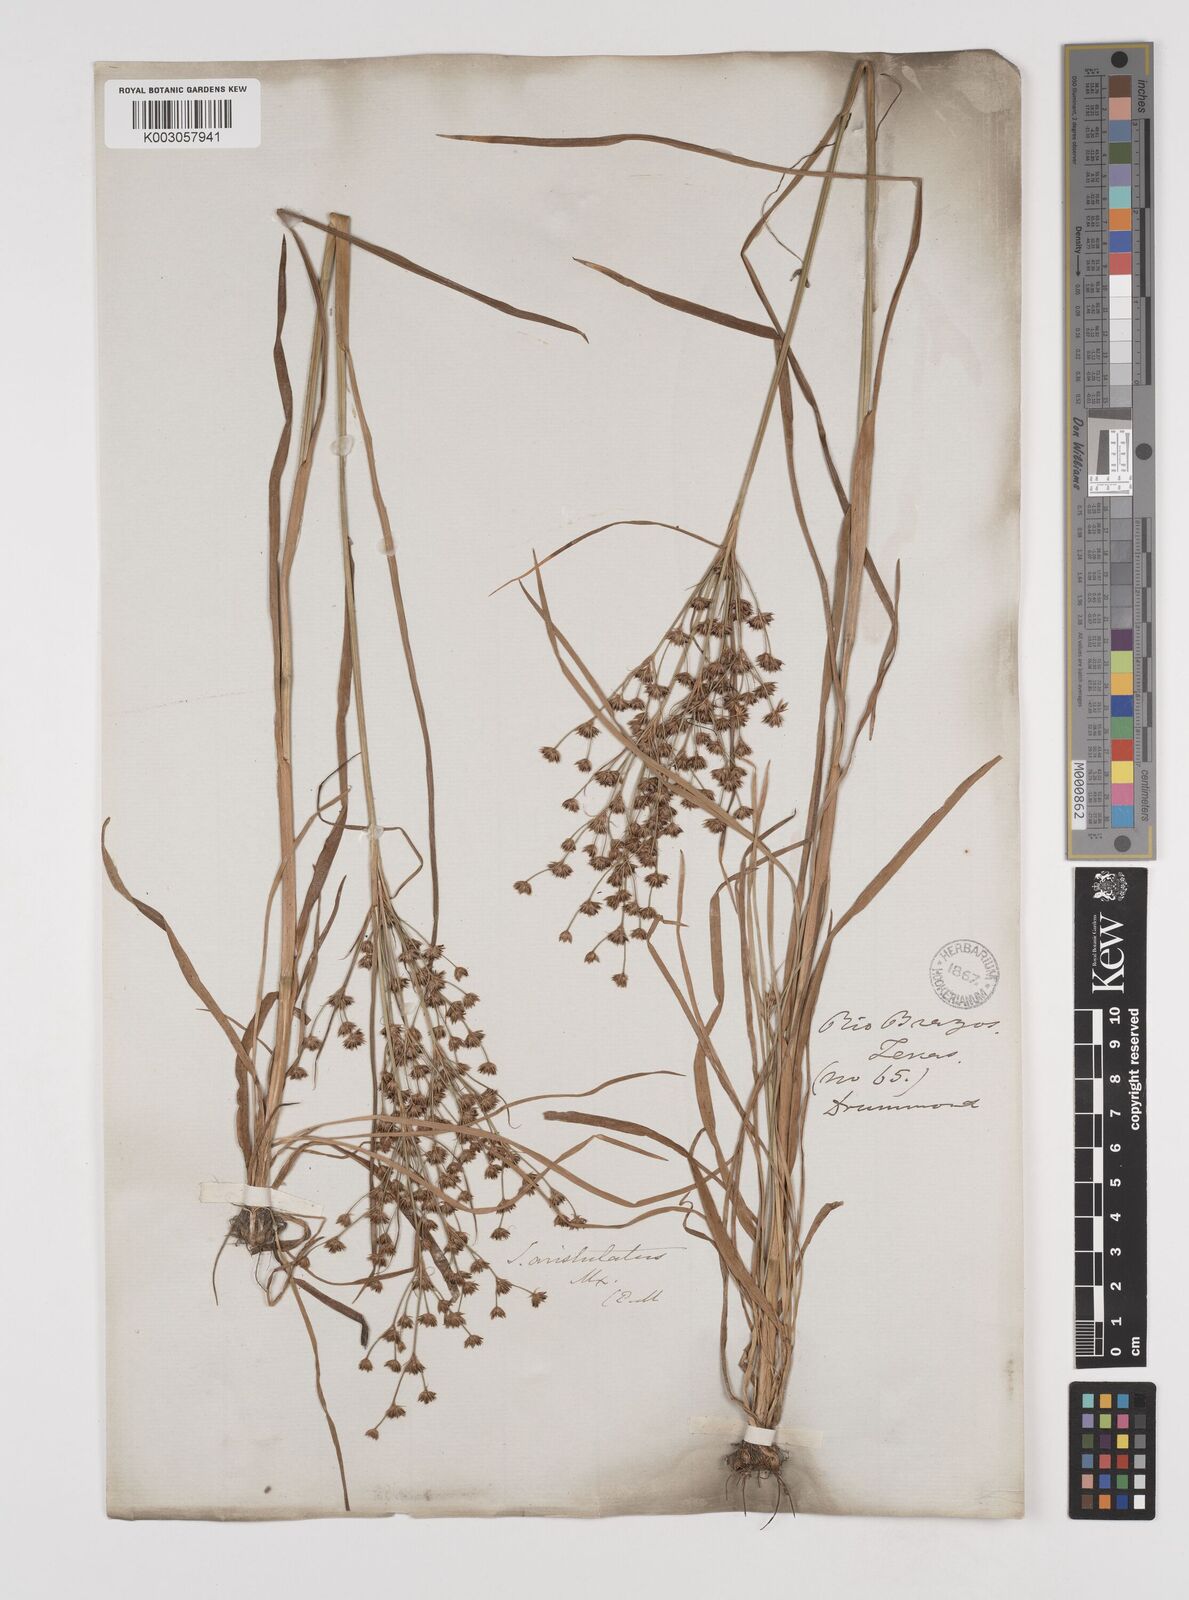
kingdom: Plantae
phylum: Tracheophyta
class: Liliopsida
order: Poales
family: Juncaceae
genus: Juncus
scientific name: Juncus marginatus
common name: Grass-leaf rush
